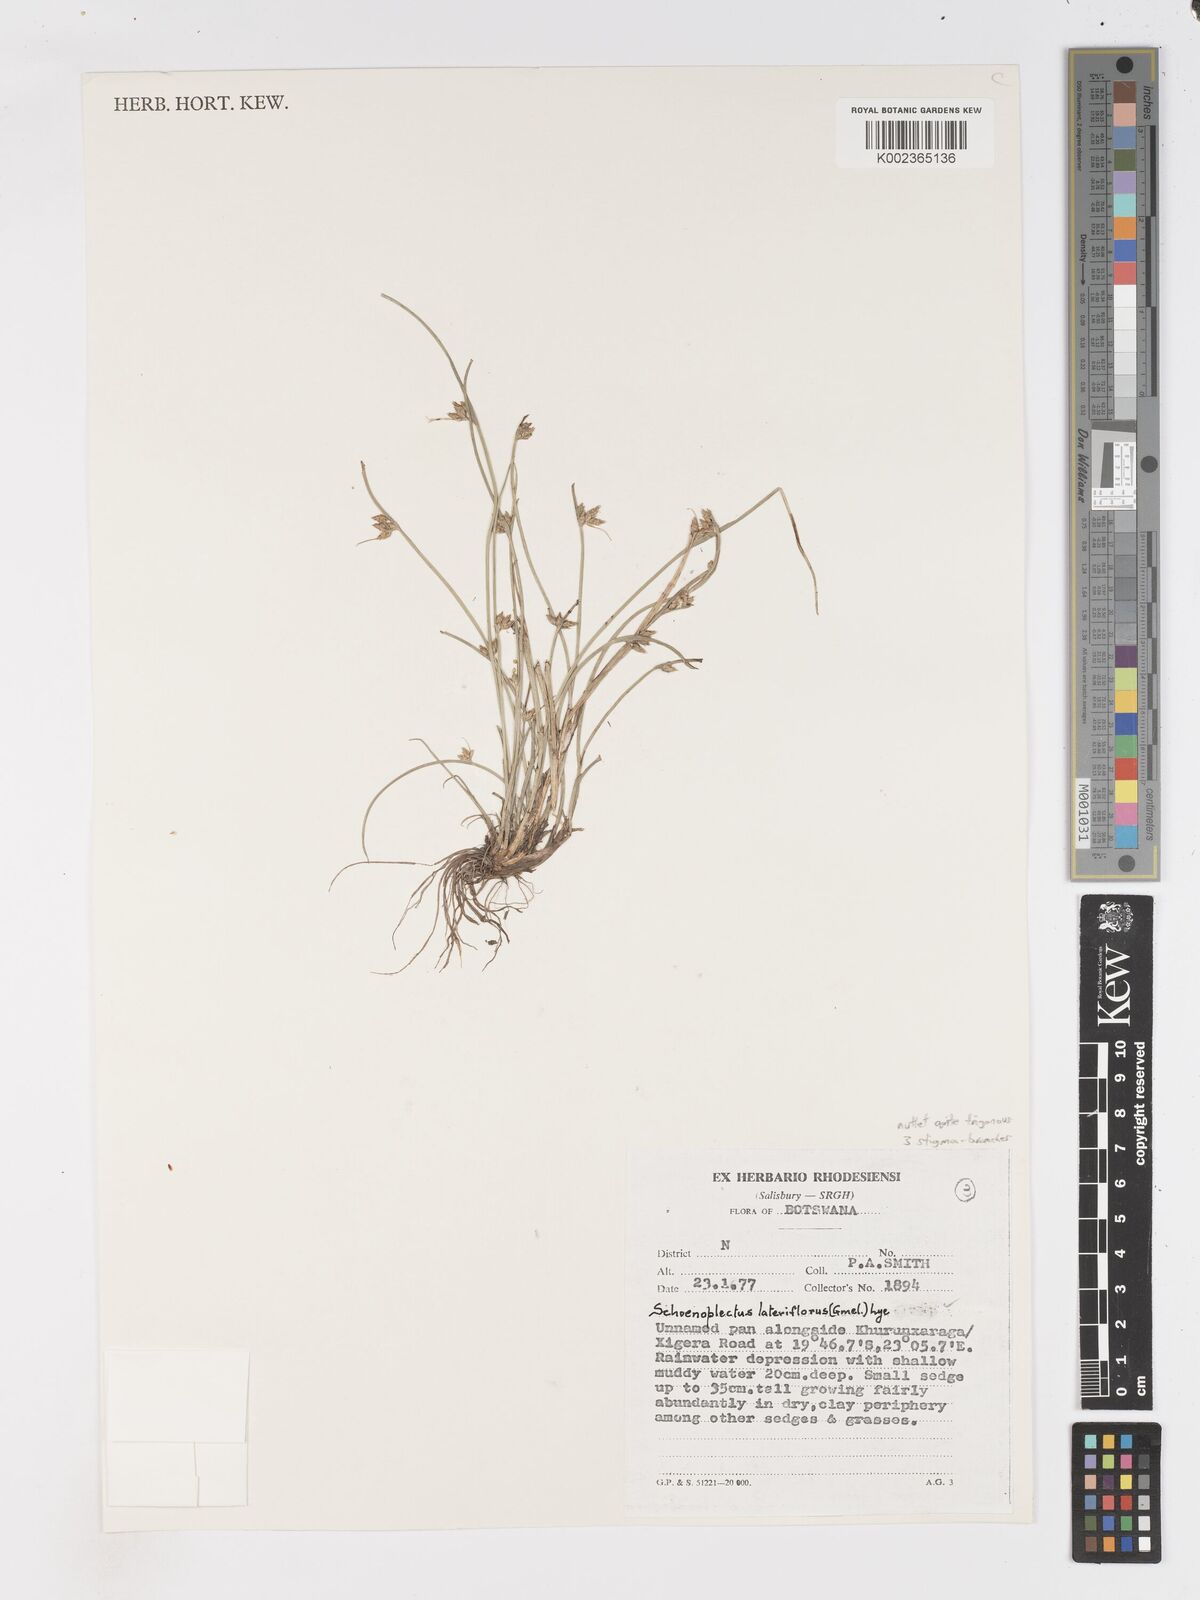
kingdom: Plantae
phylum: Tracheophyta
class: Liliopsida
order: Poales
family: Cyperaceae
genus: Schoenoplectiella
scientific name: Schoenoplectiella lateriflora
